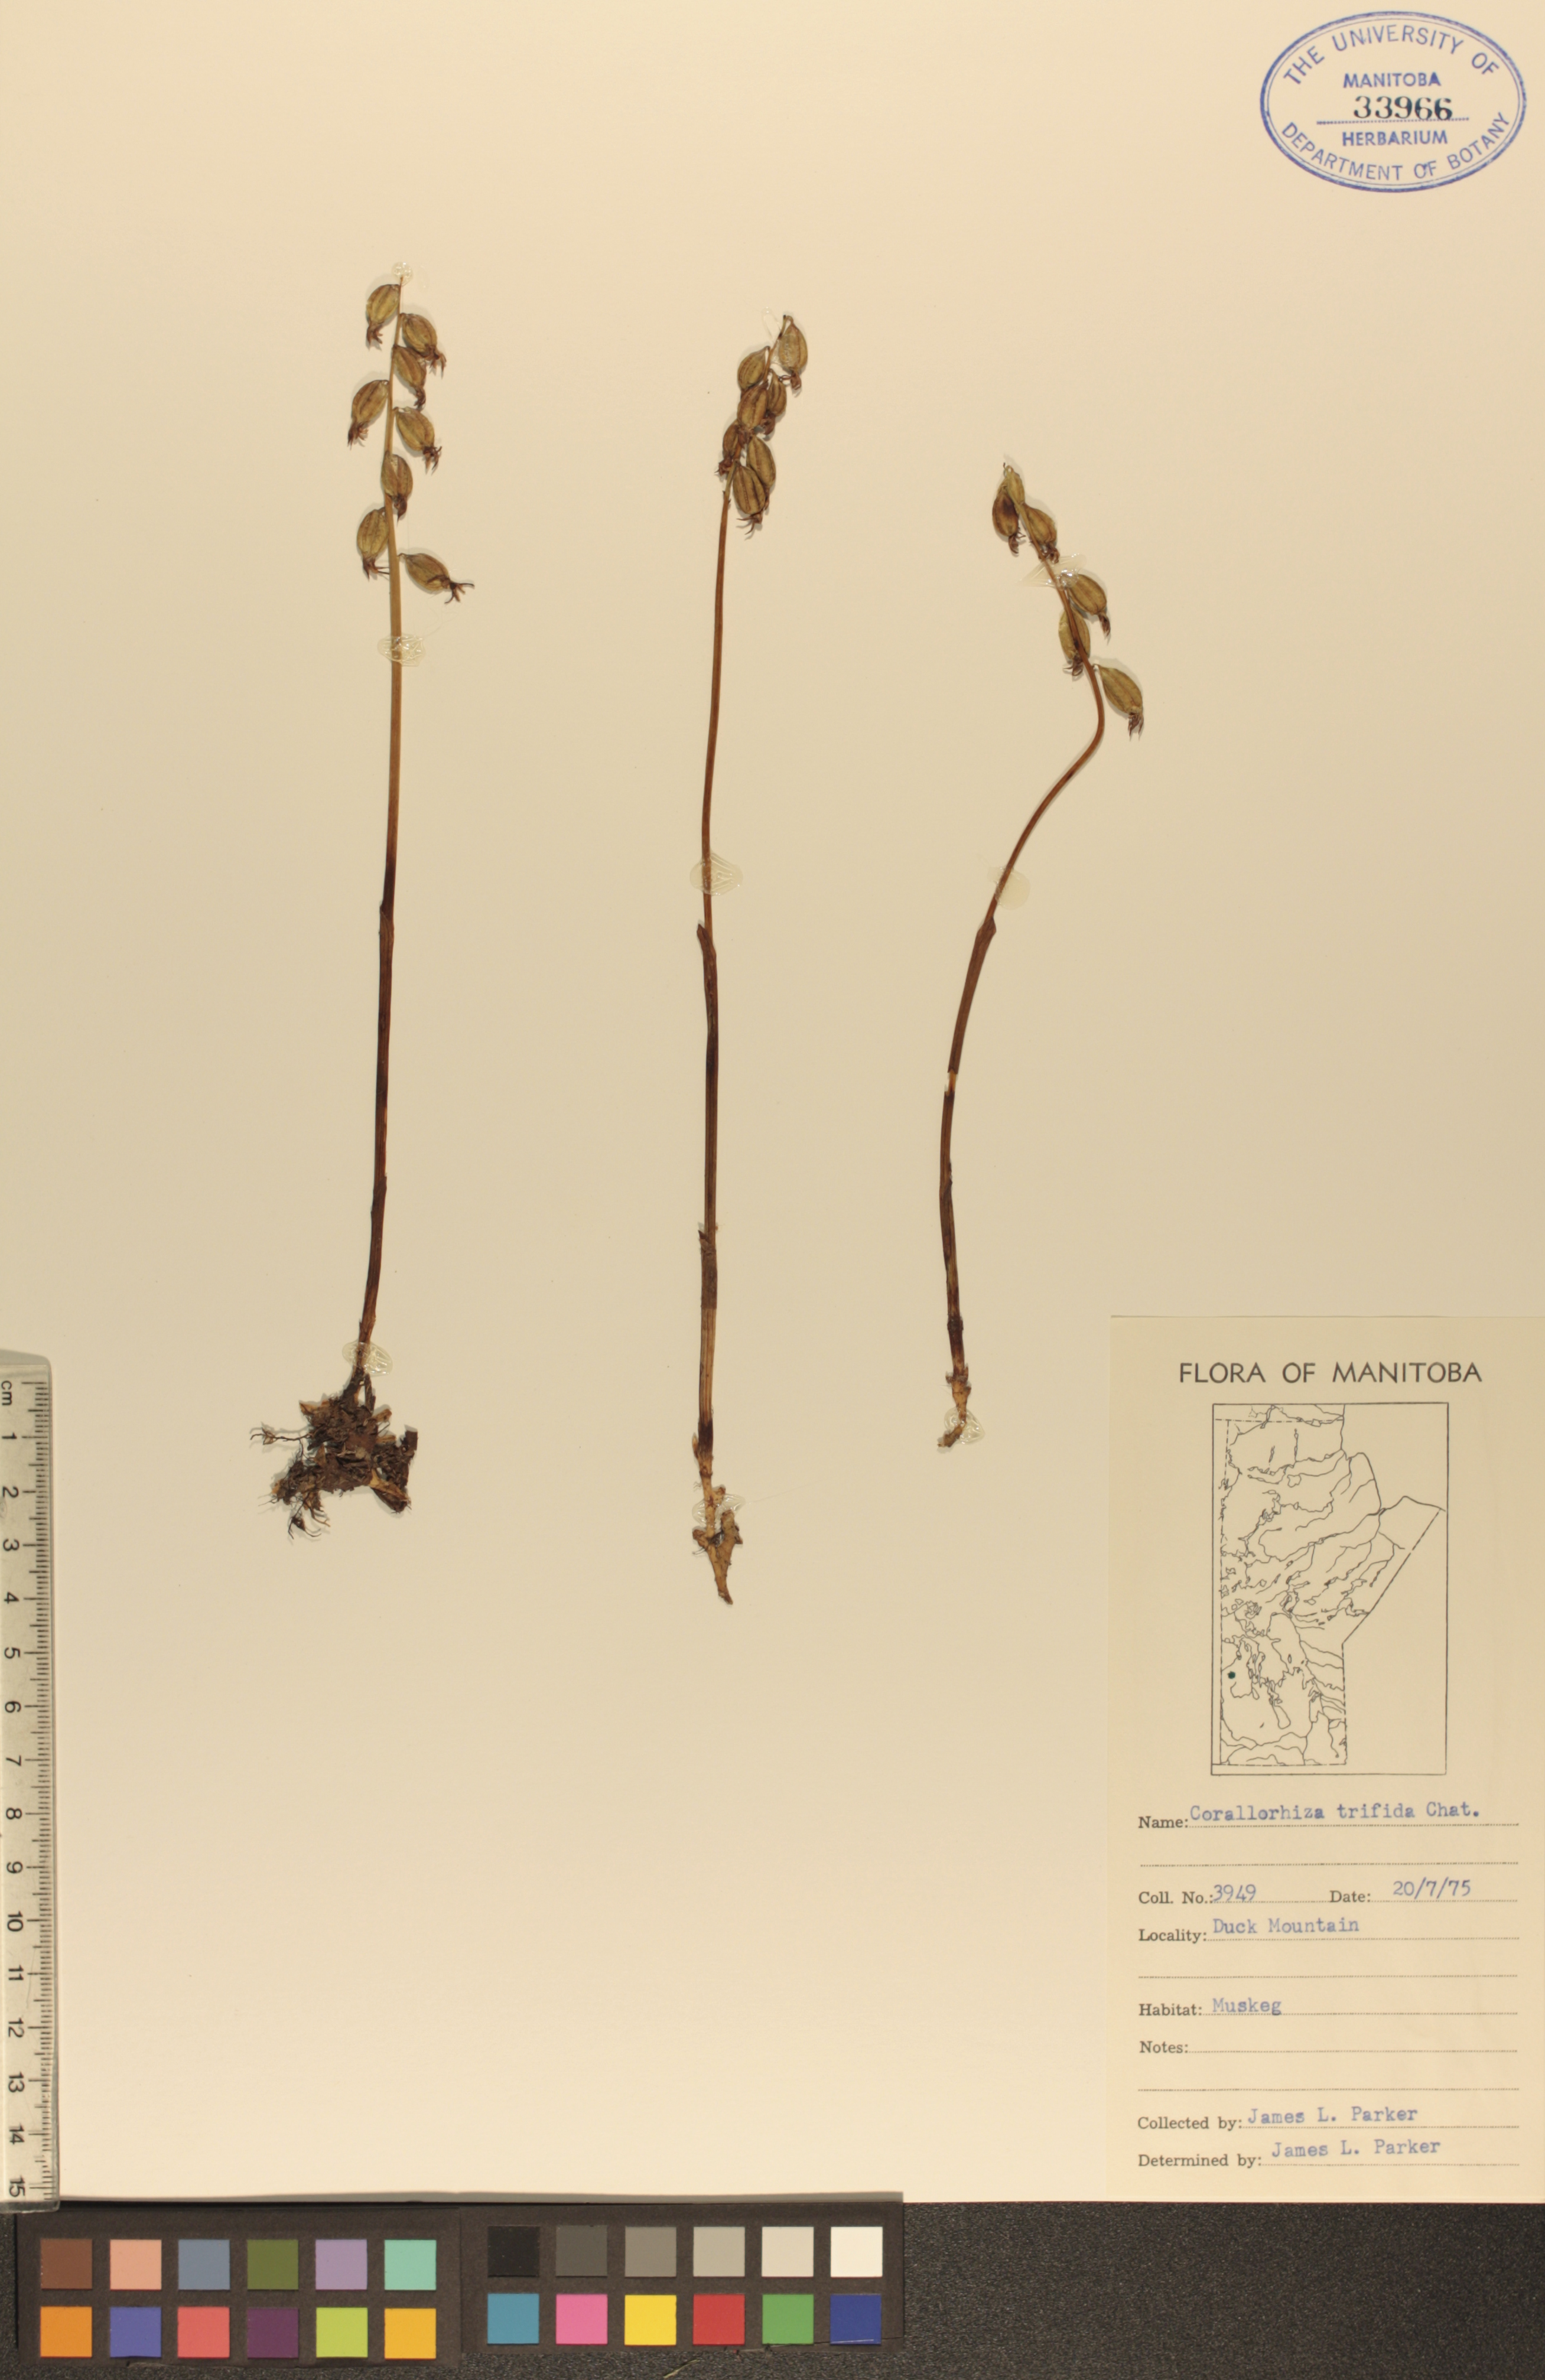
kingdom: Plantae
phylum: Tracheophyta
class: Liliopsida
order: Asparagales
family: Orchidaceae
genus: Corallorhiza
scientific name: Corallorhiza trifida
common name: Yellow coralroot
